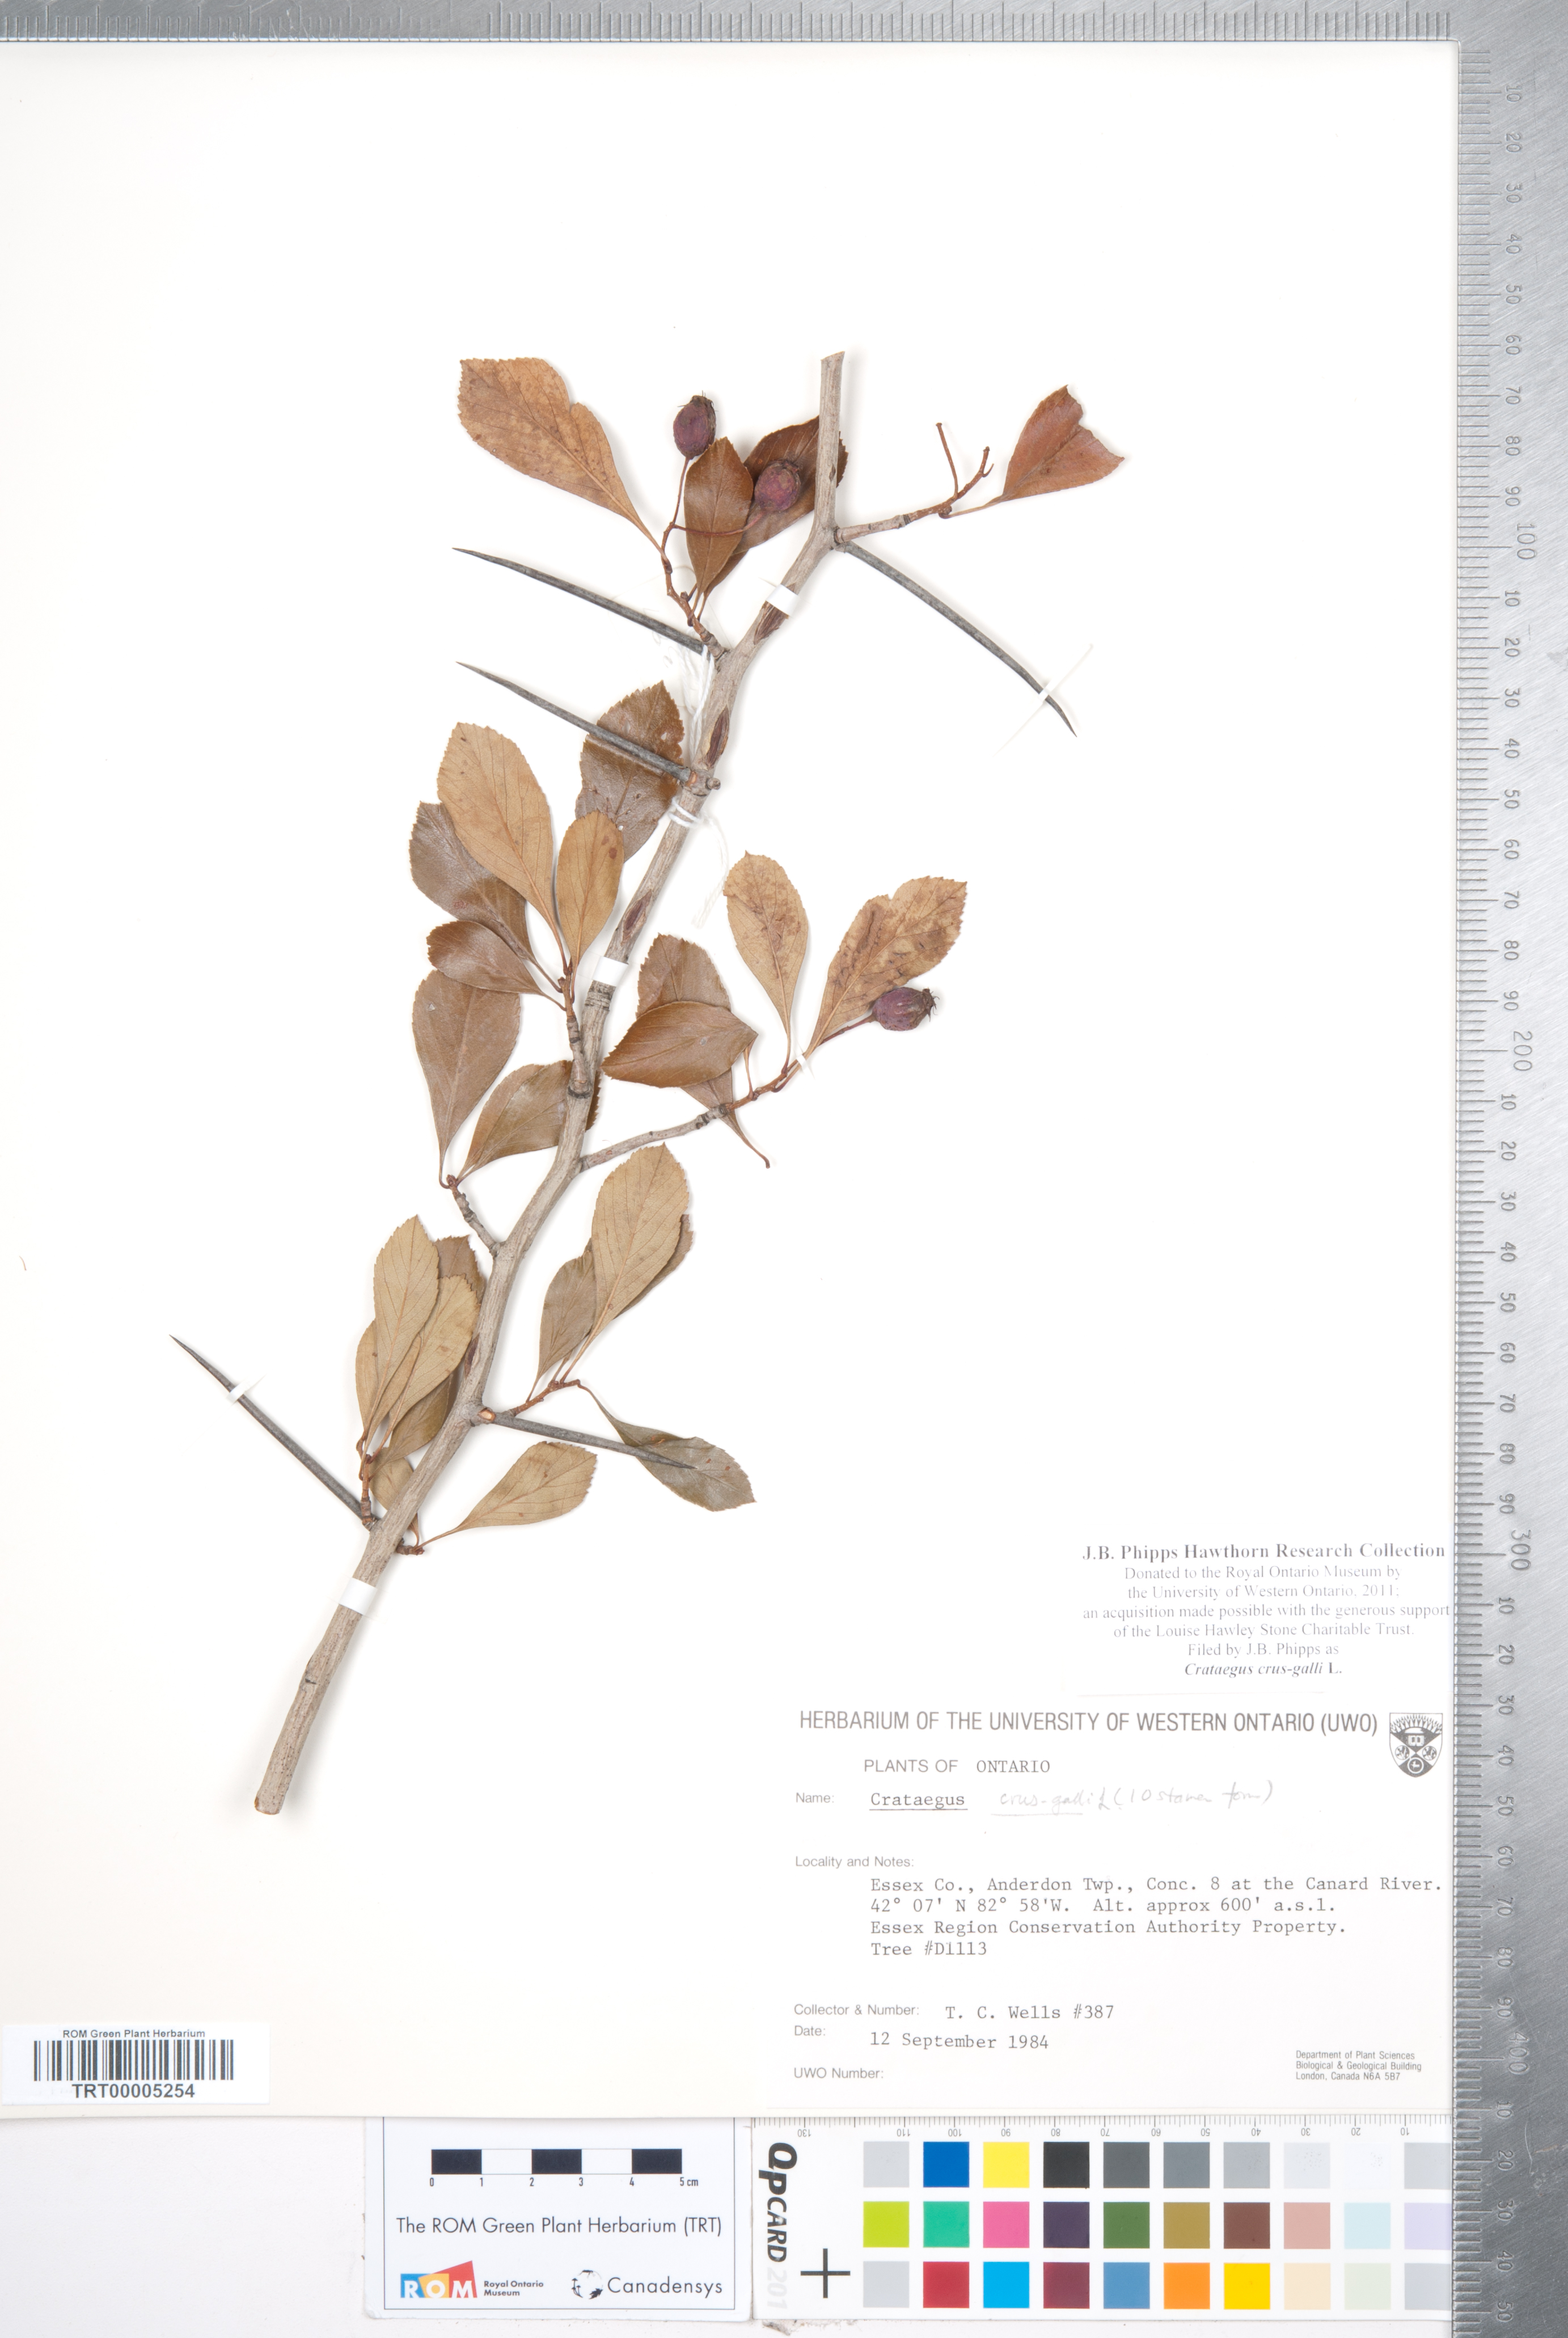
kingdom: Plantae
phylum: Tracheophyta
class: Magnoliopsida
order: Rosales
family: Rosaceae
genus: Crataegus
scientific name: Crataegus crus-galli
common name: Cockspurthorn
